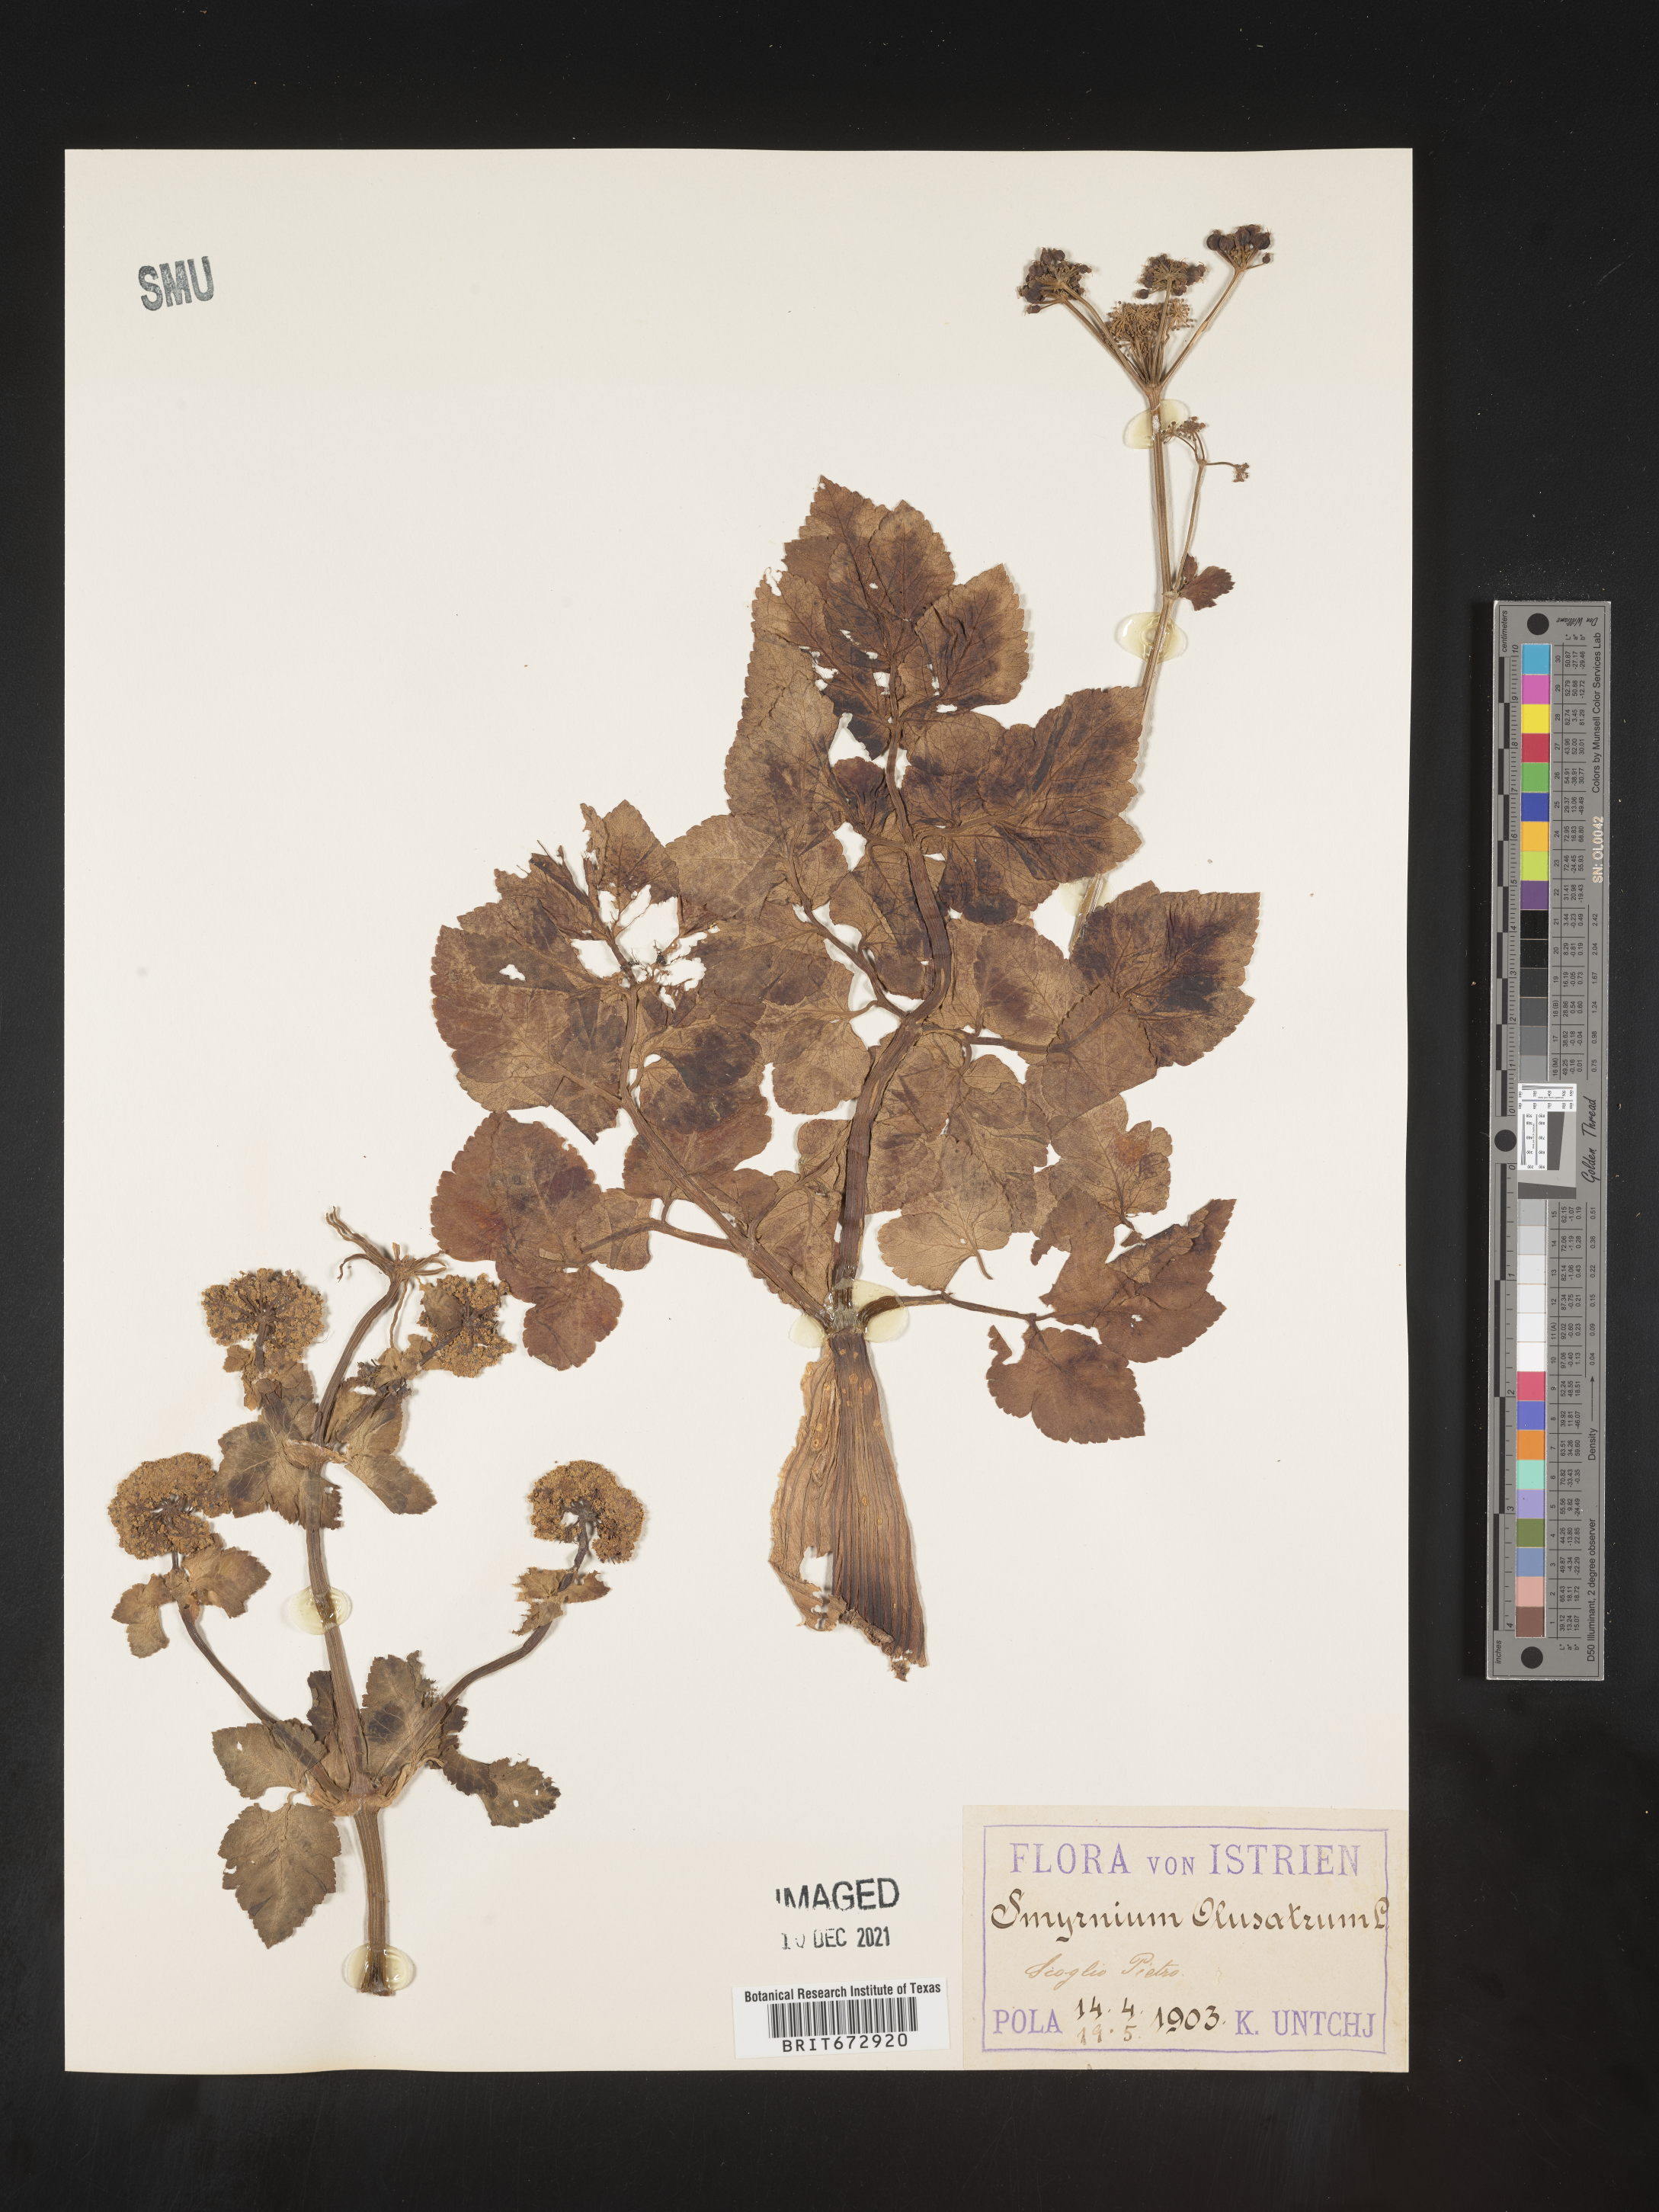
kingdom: Plantae
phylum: Tracheophyta
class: Magnoliopsida
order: Apiales
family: Apiaceae
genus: Smyrnium
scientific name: Smyrnium
